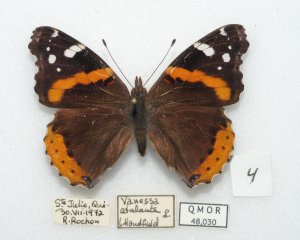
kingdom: Animalia
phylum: Arthropoda
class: Insecta
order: Lepidoptera
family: Nymphalidae
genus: Vanessa
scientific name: Vanessa atalanta
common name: Red Admiral
